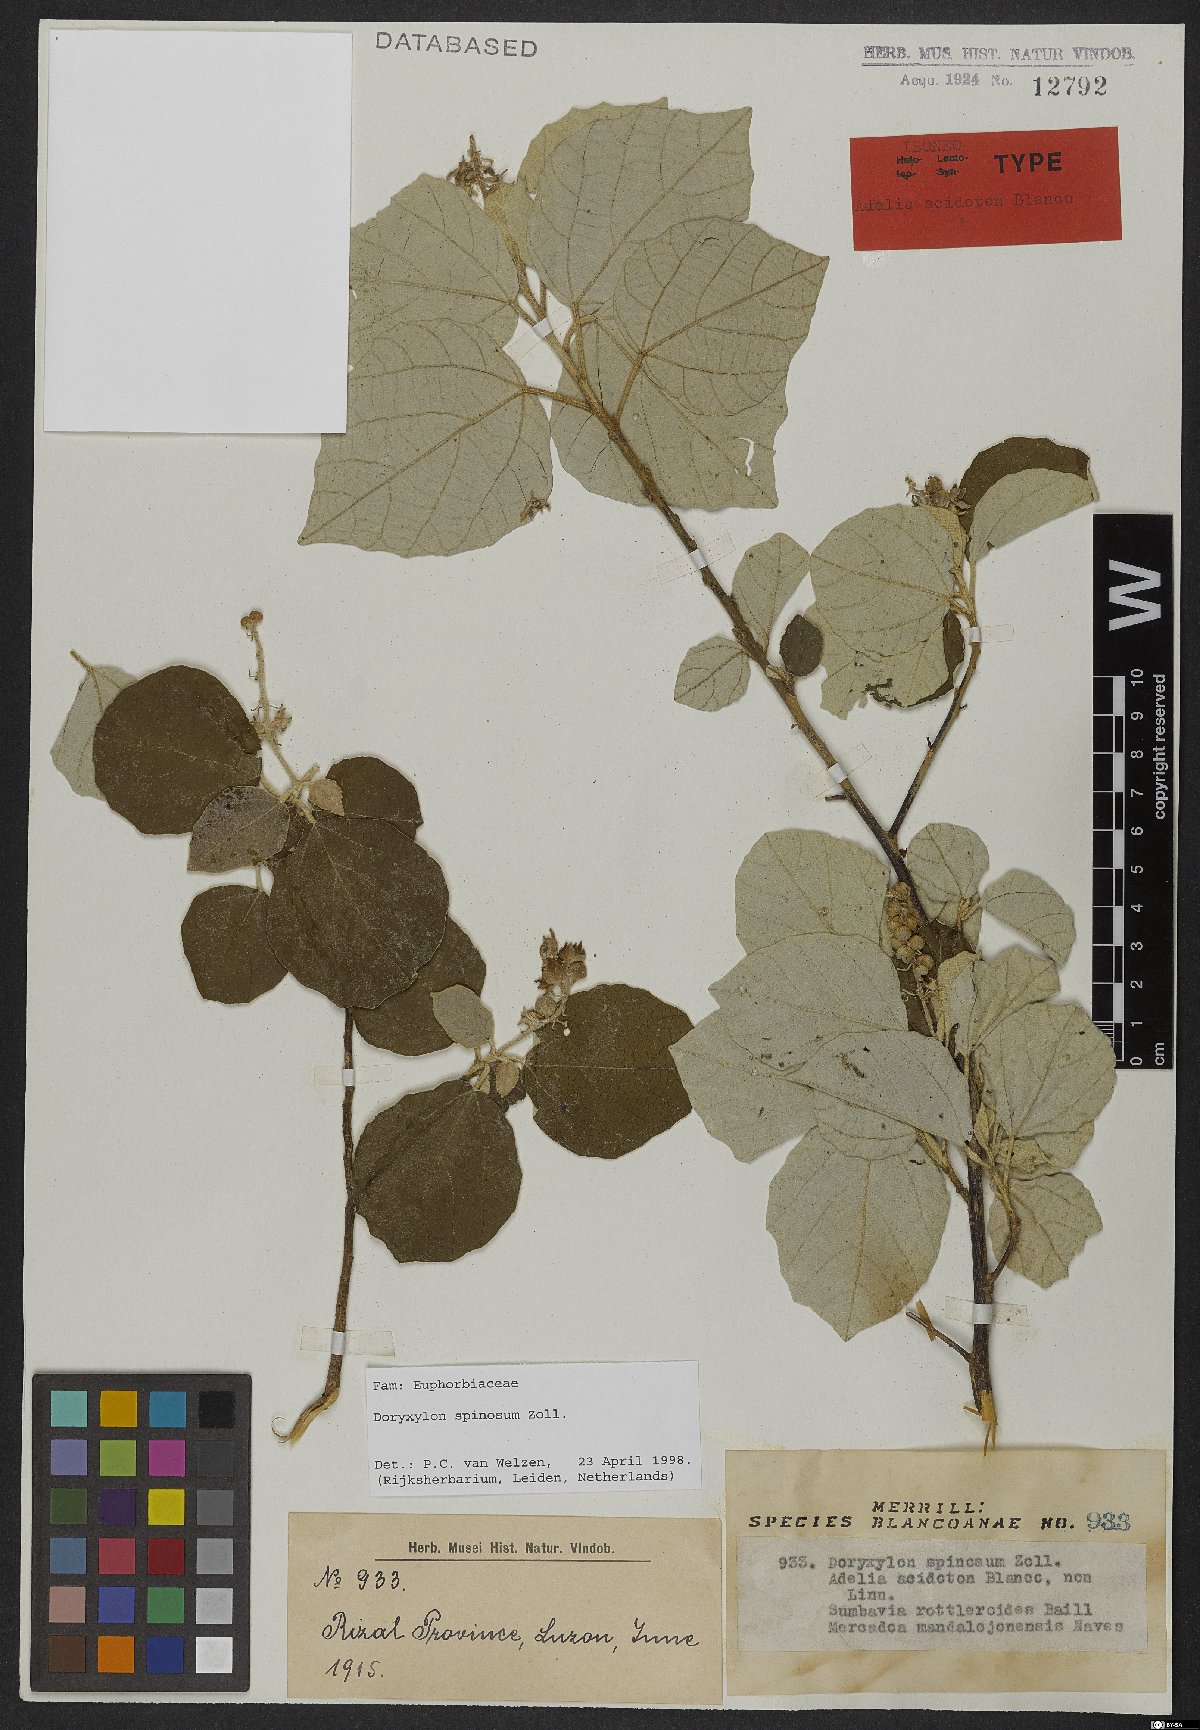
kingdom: Plantae
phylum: Tracheophyta
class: Magnoliopsida
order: Malpighiales
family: Euphorbiaceae
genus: Doryxylon
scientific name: Doryxylon spinosum
